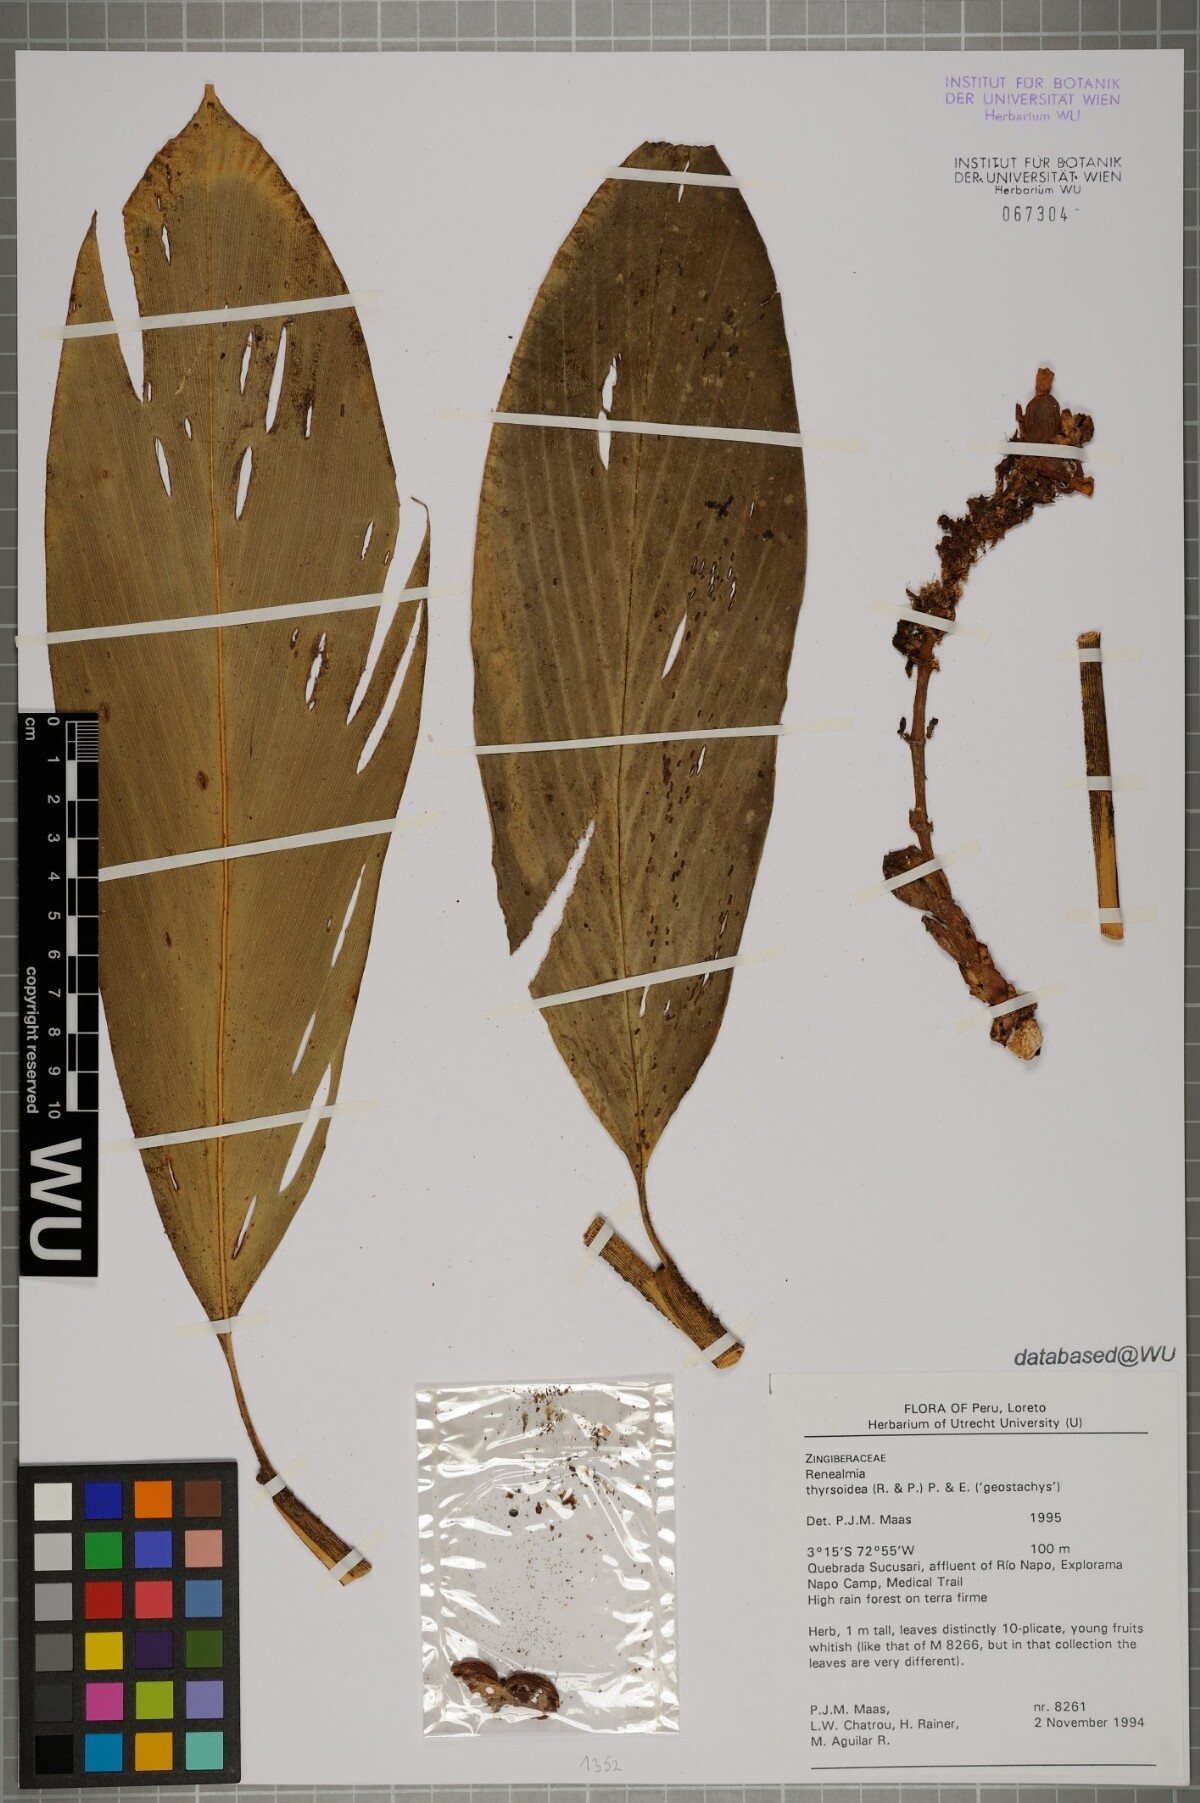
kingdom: Plantae
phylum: Tracheophyta
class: Liliopsida
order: Zingiberales
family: Zingiberaceae
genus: Renealmia
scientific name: Renealmia thyrsoidea
